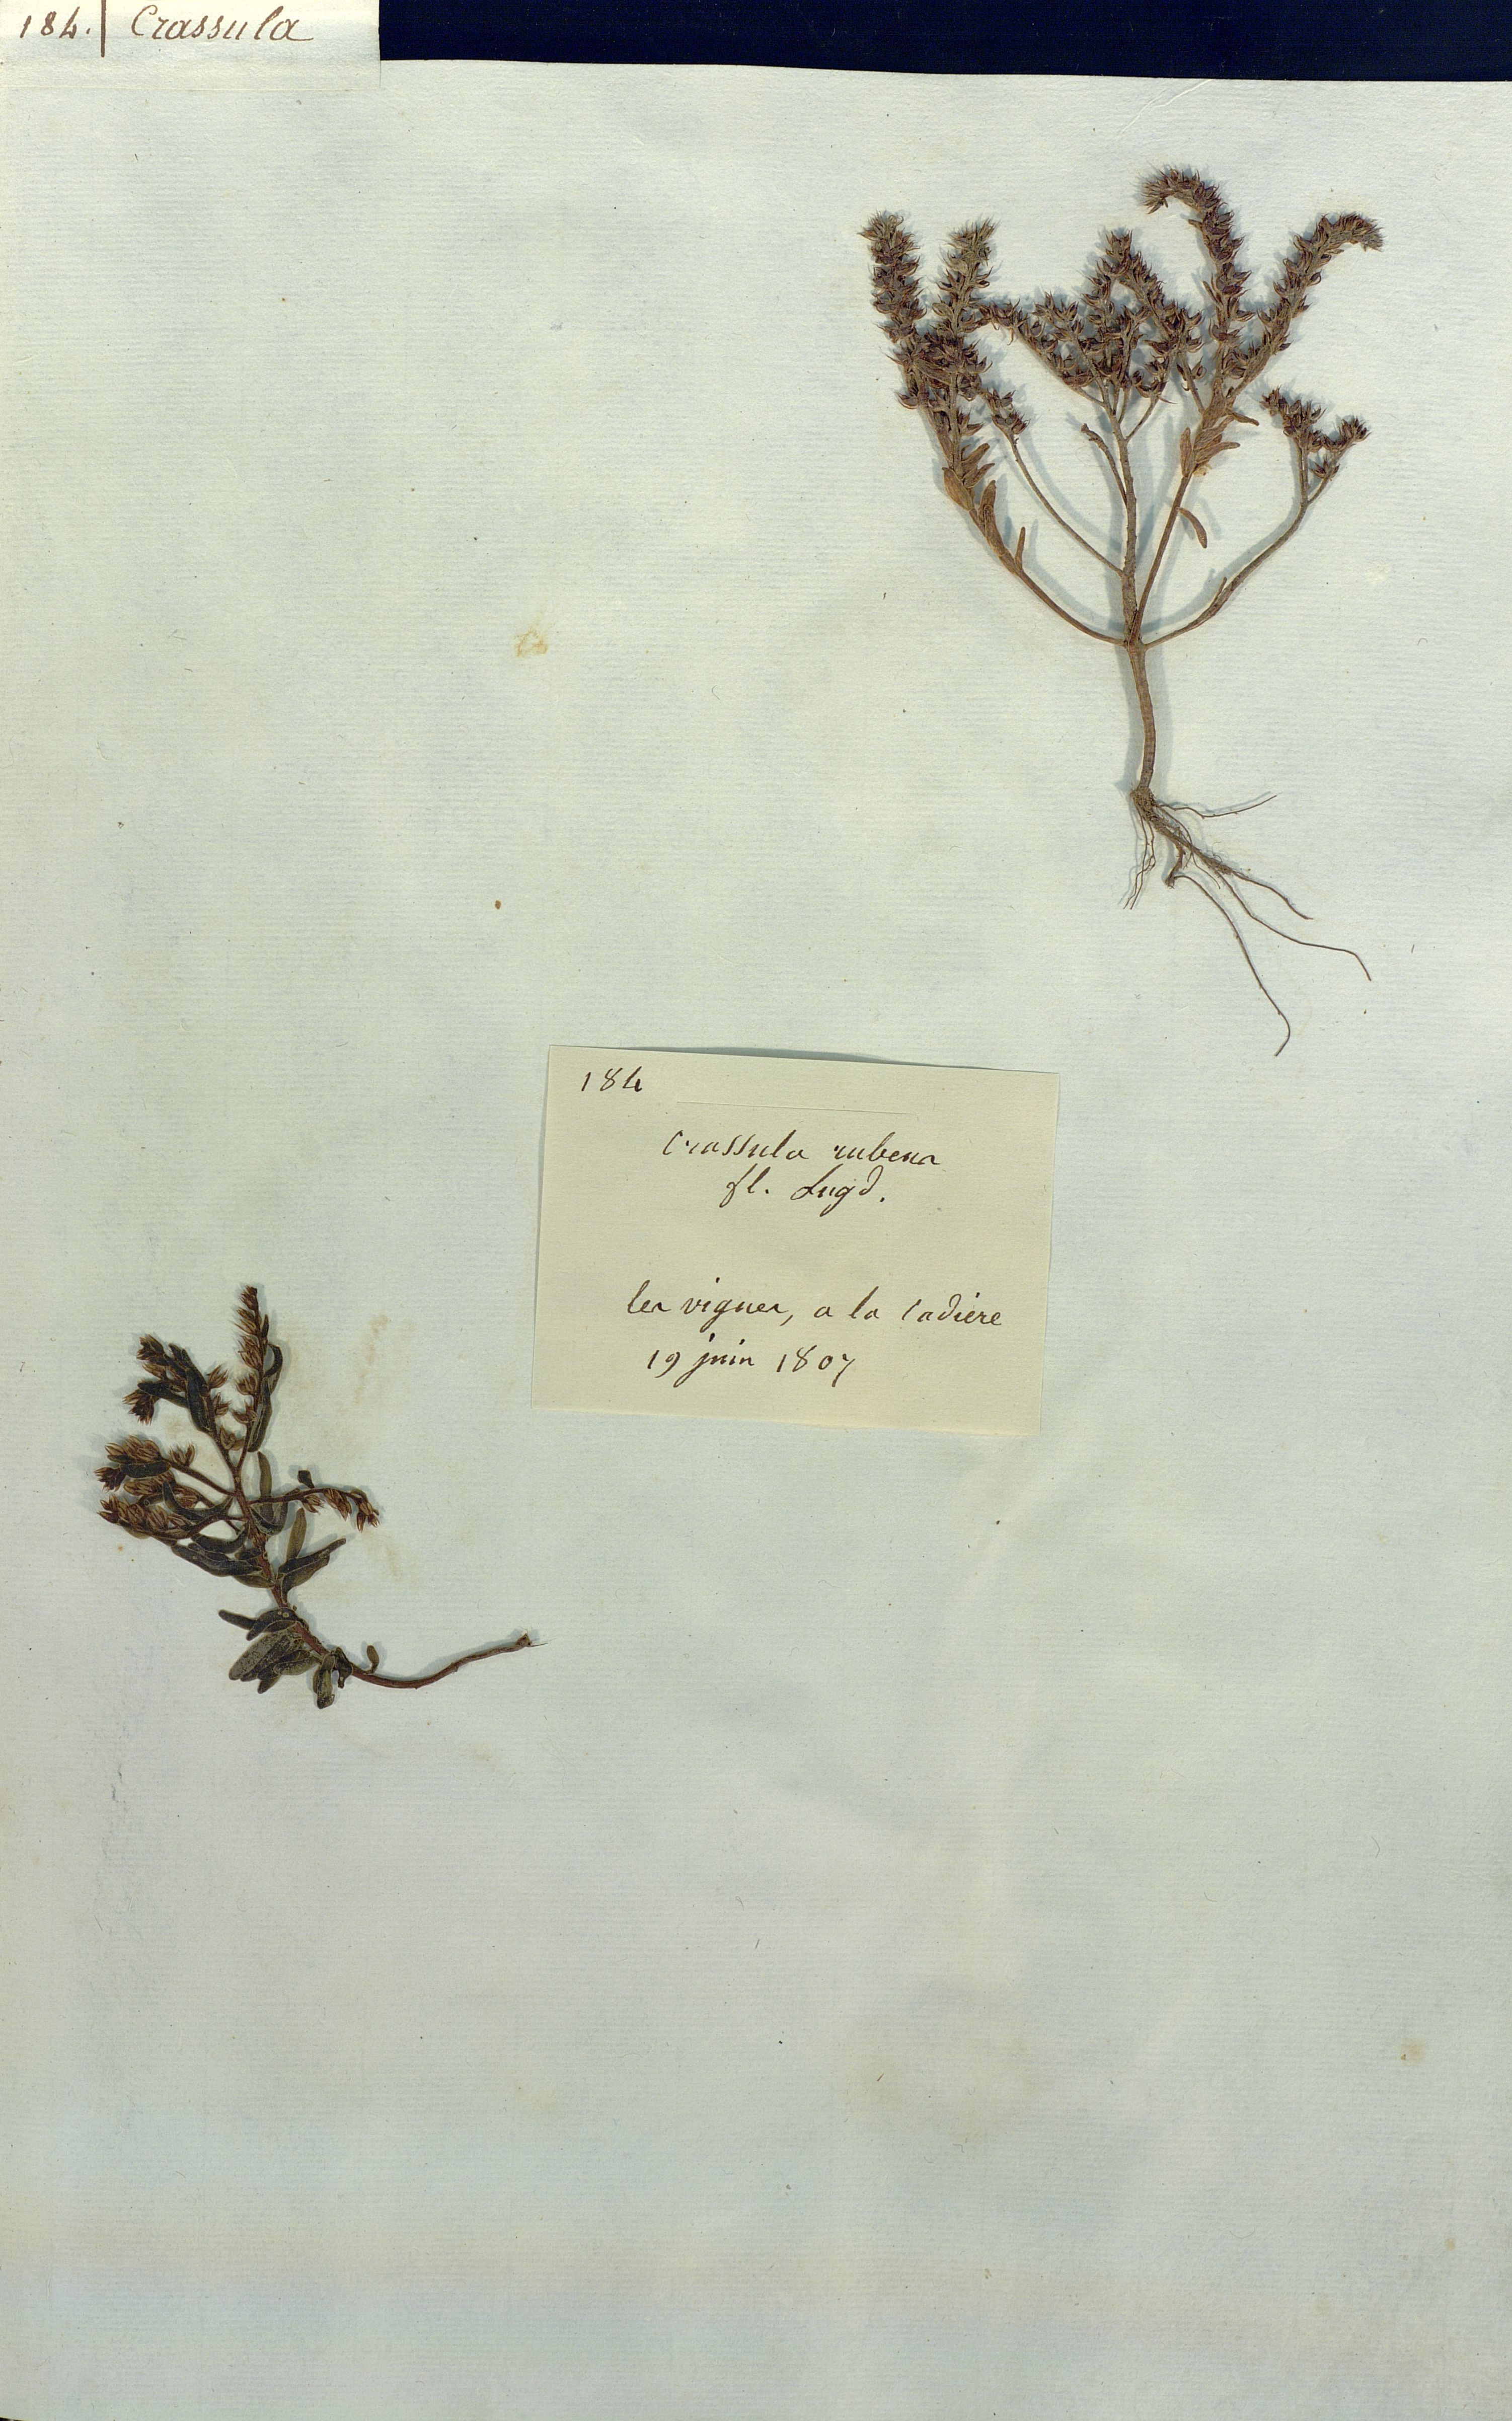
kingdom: Plantae
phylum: Tracheophyta
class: Magnoliopsida
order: Saxifragales
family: Crassulaceae
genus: Sedum
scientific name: Sedum rubens
